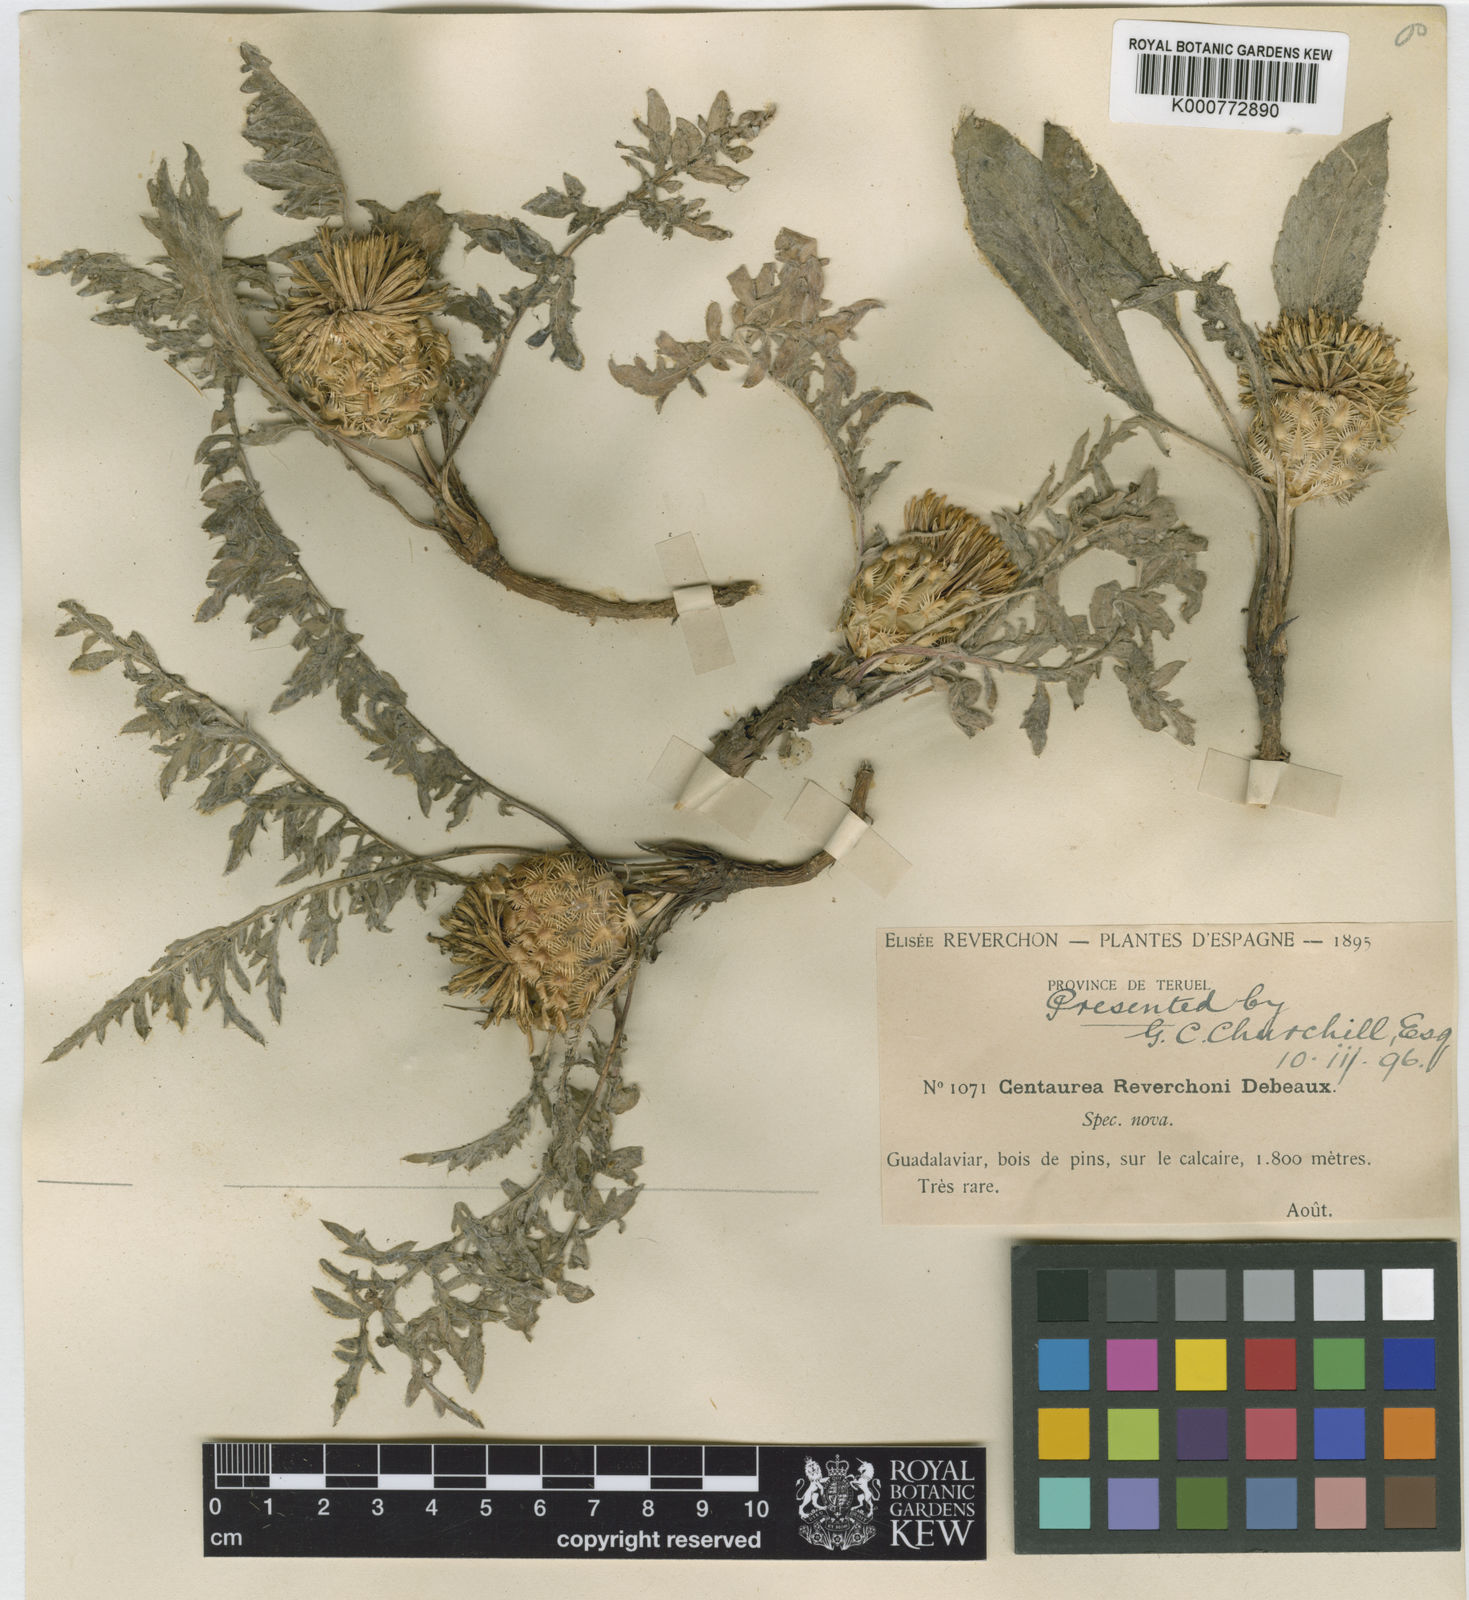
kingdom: Plantae
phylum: Tracheophyta
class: Magnoliopsida
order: Asterales
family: Asteraceae
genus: Centaurea
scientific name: Centaurea toletana
